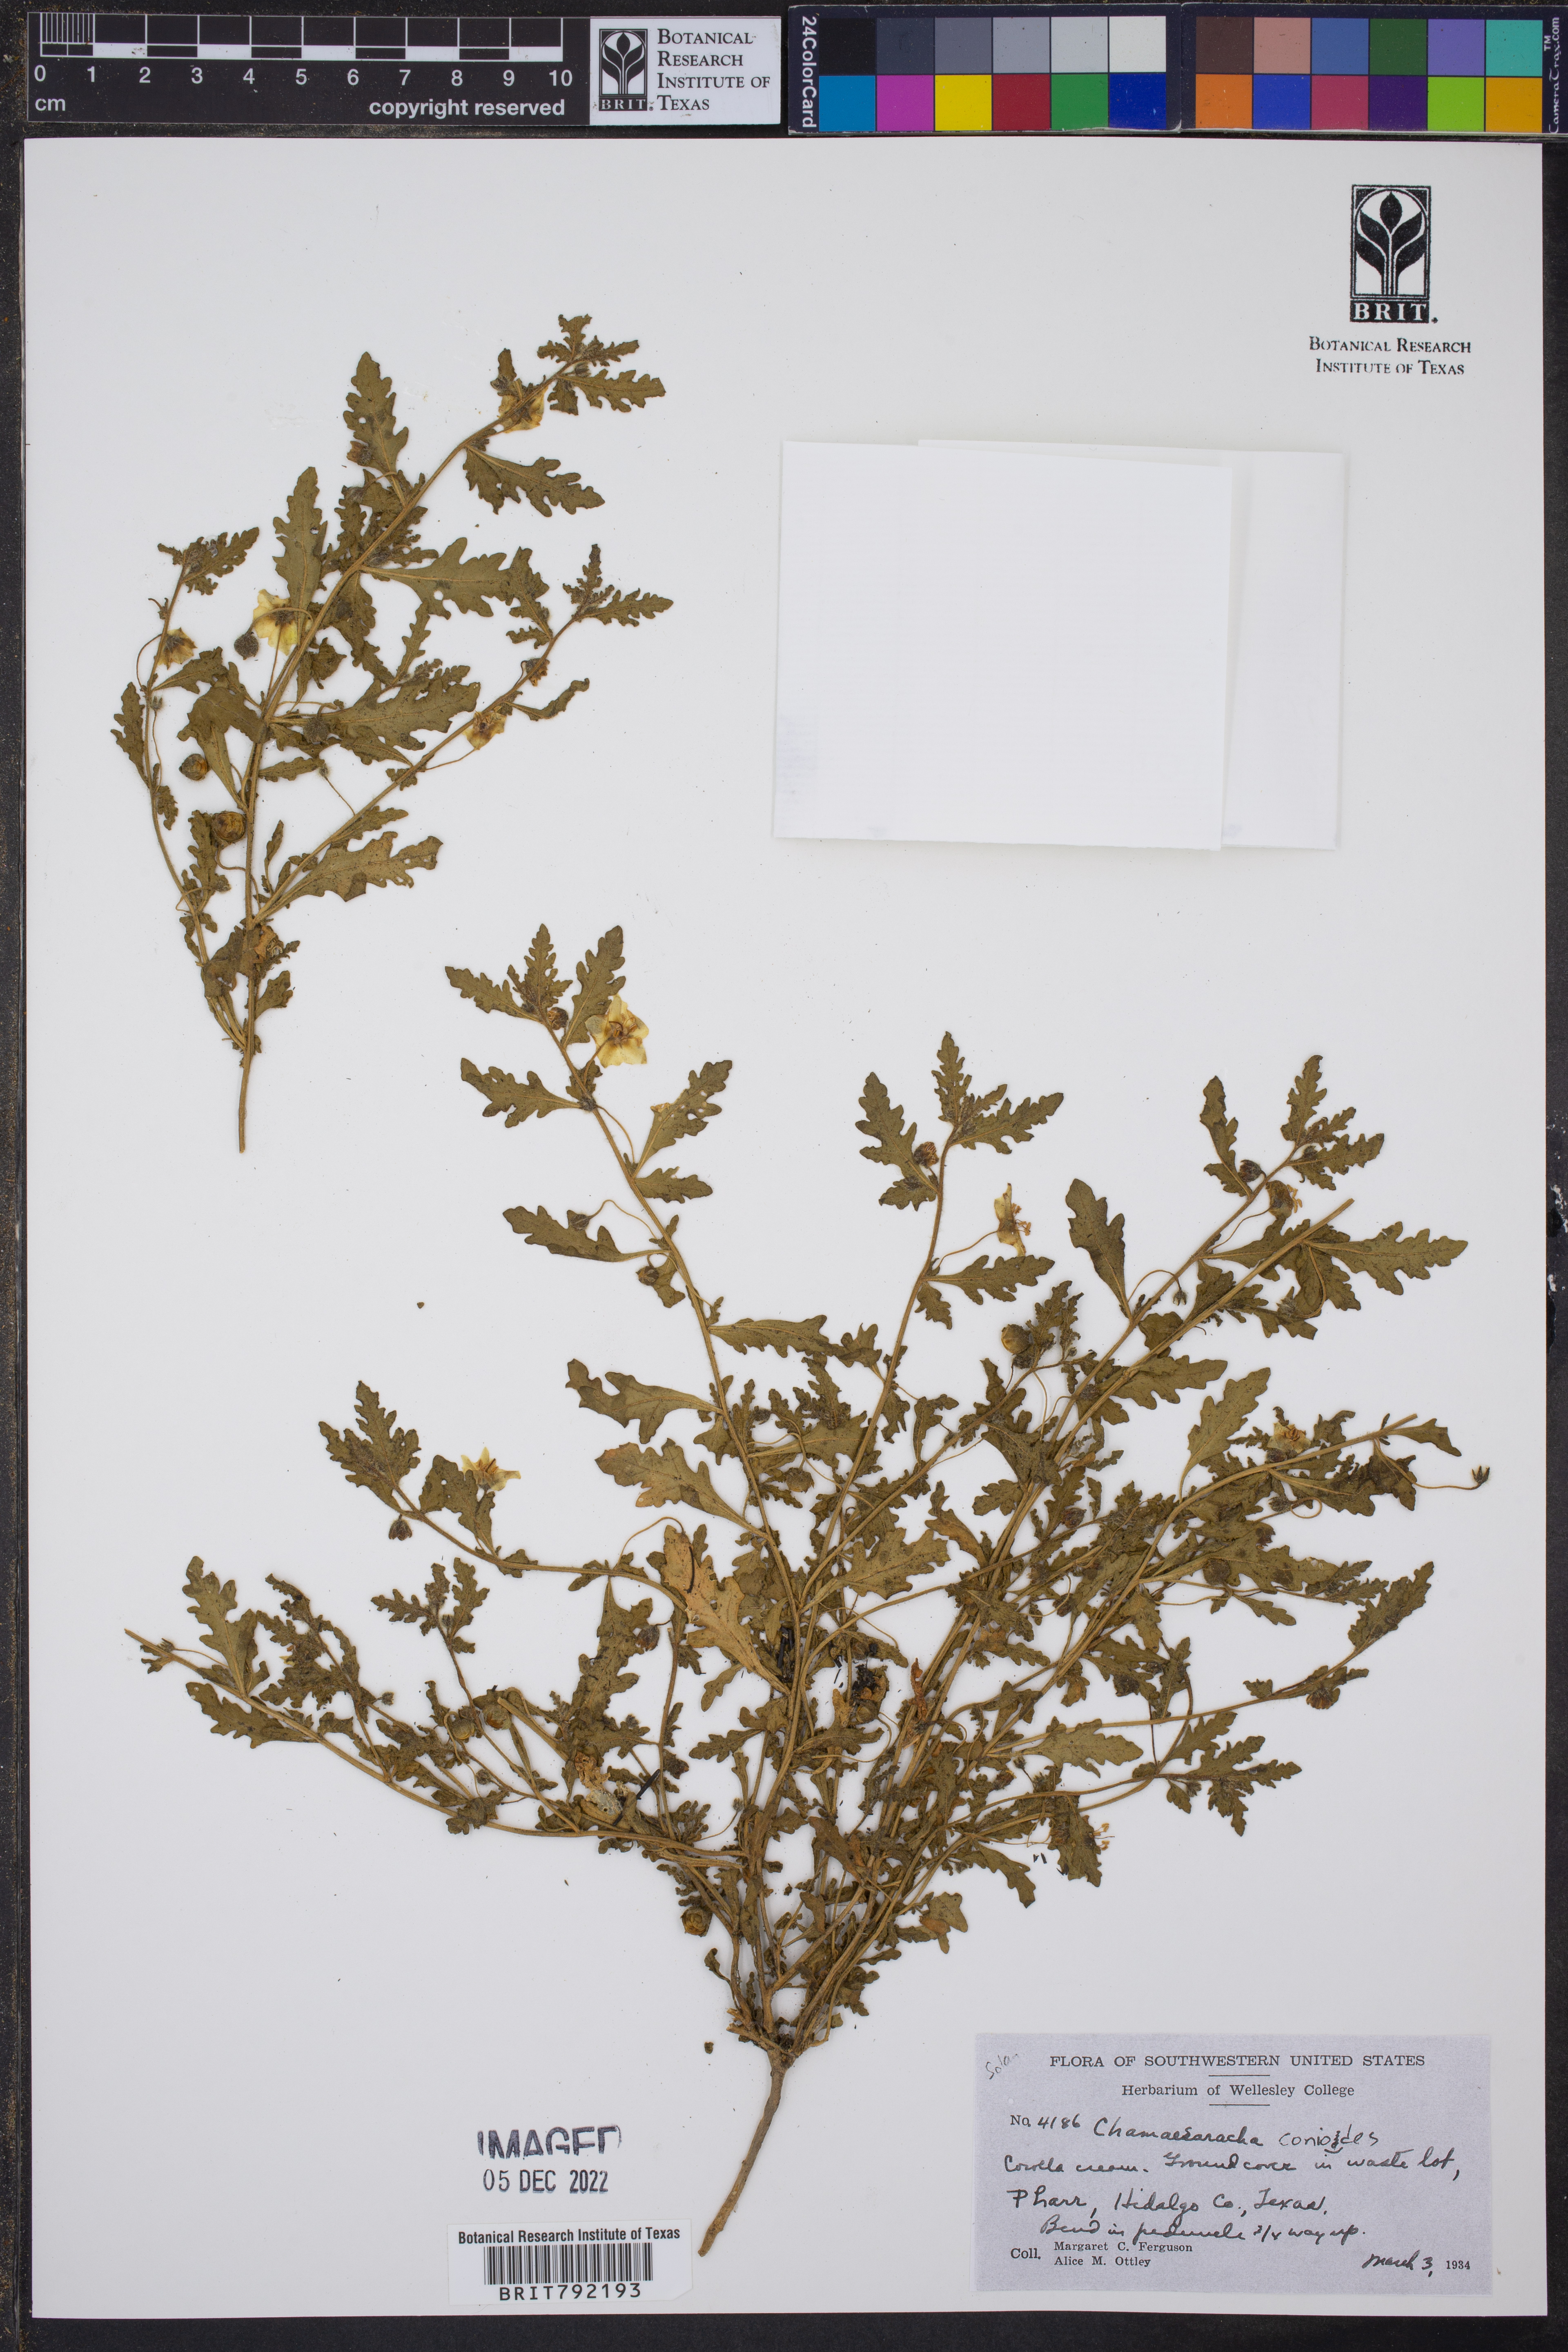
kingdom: Plantae
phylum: Tracheophyta
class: Magnoliopsida
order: Solanales
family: Solanaceae
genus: Chamaesaracha
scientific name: Chamaesaracha conioides
